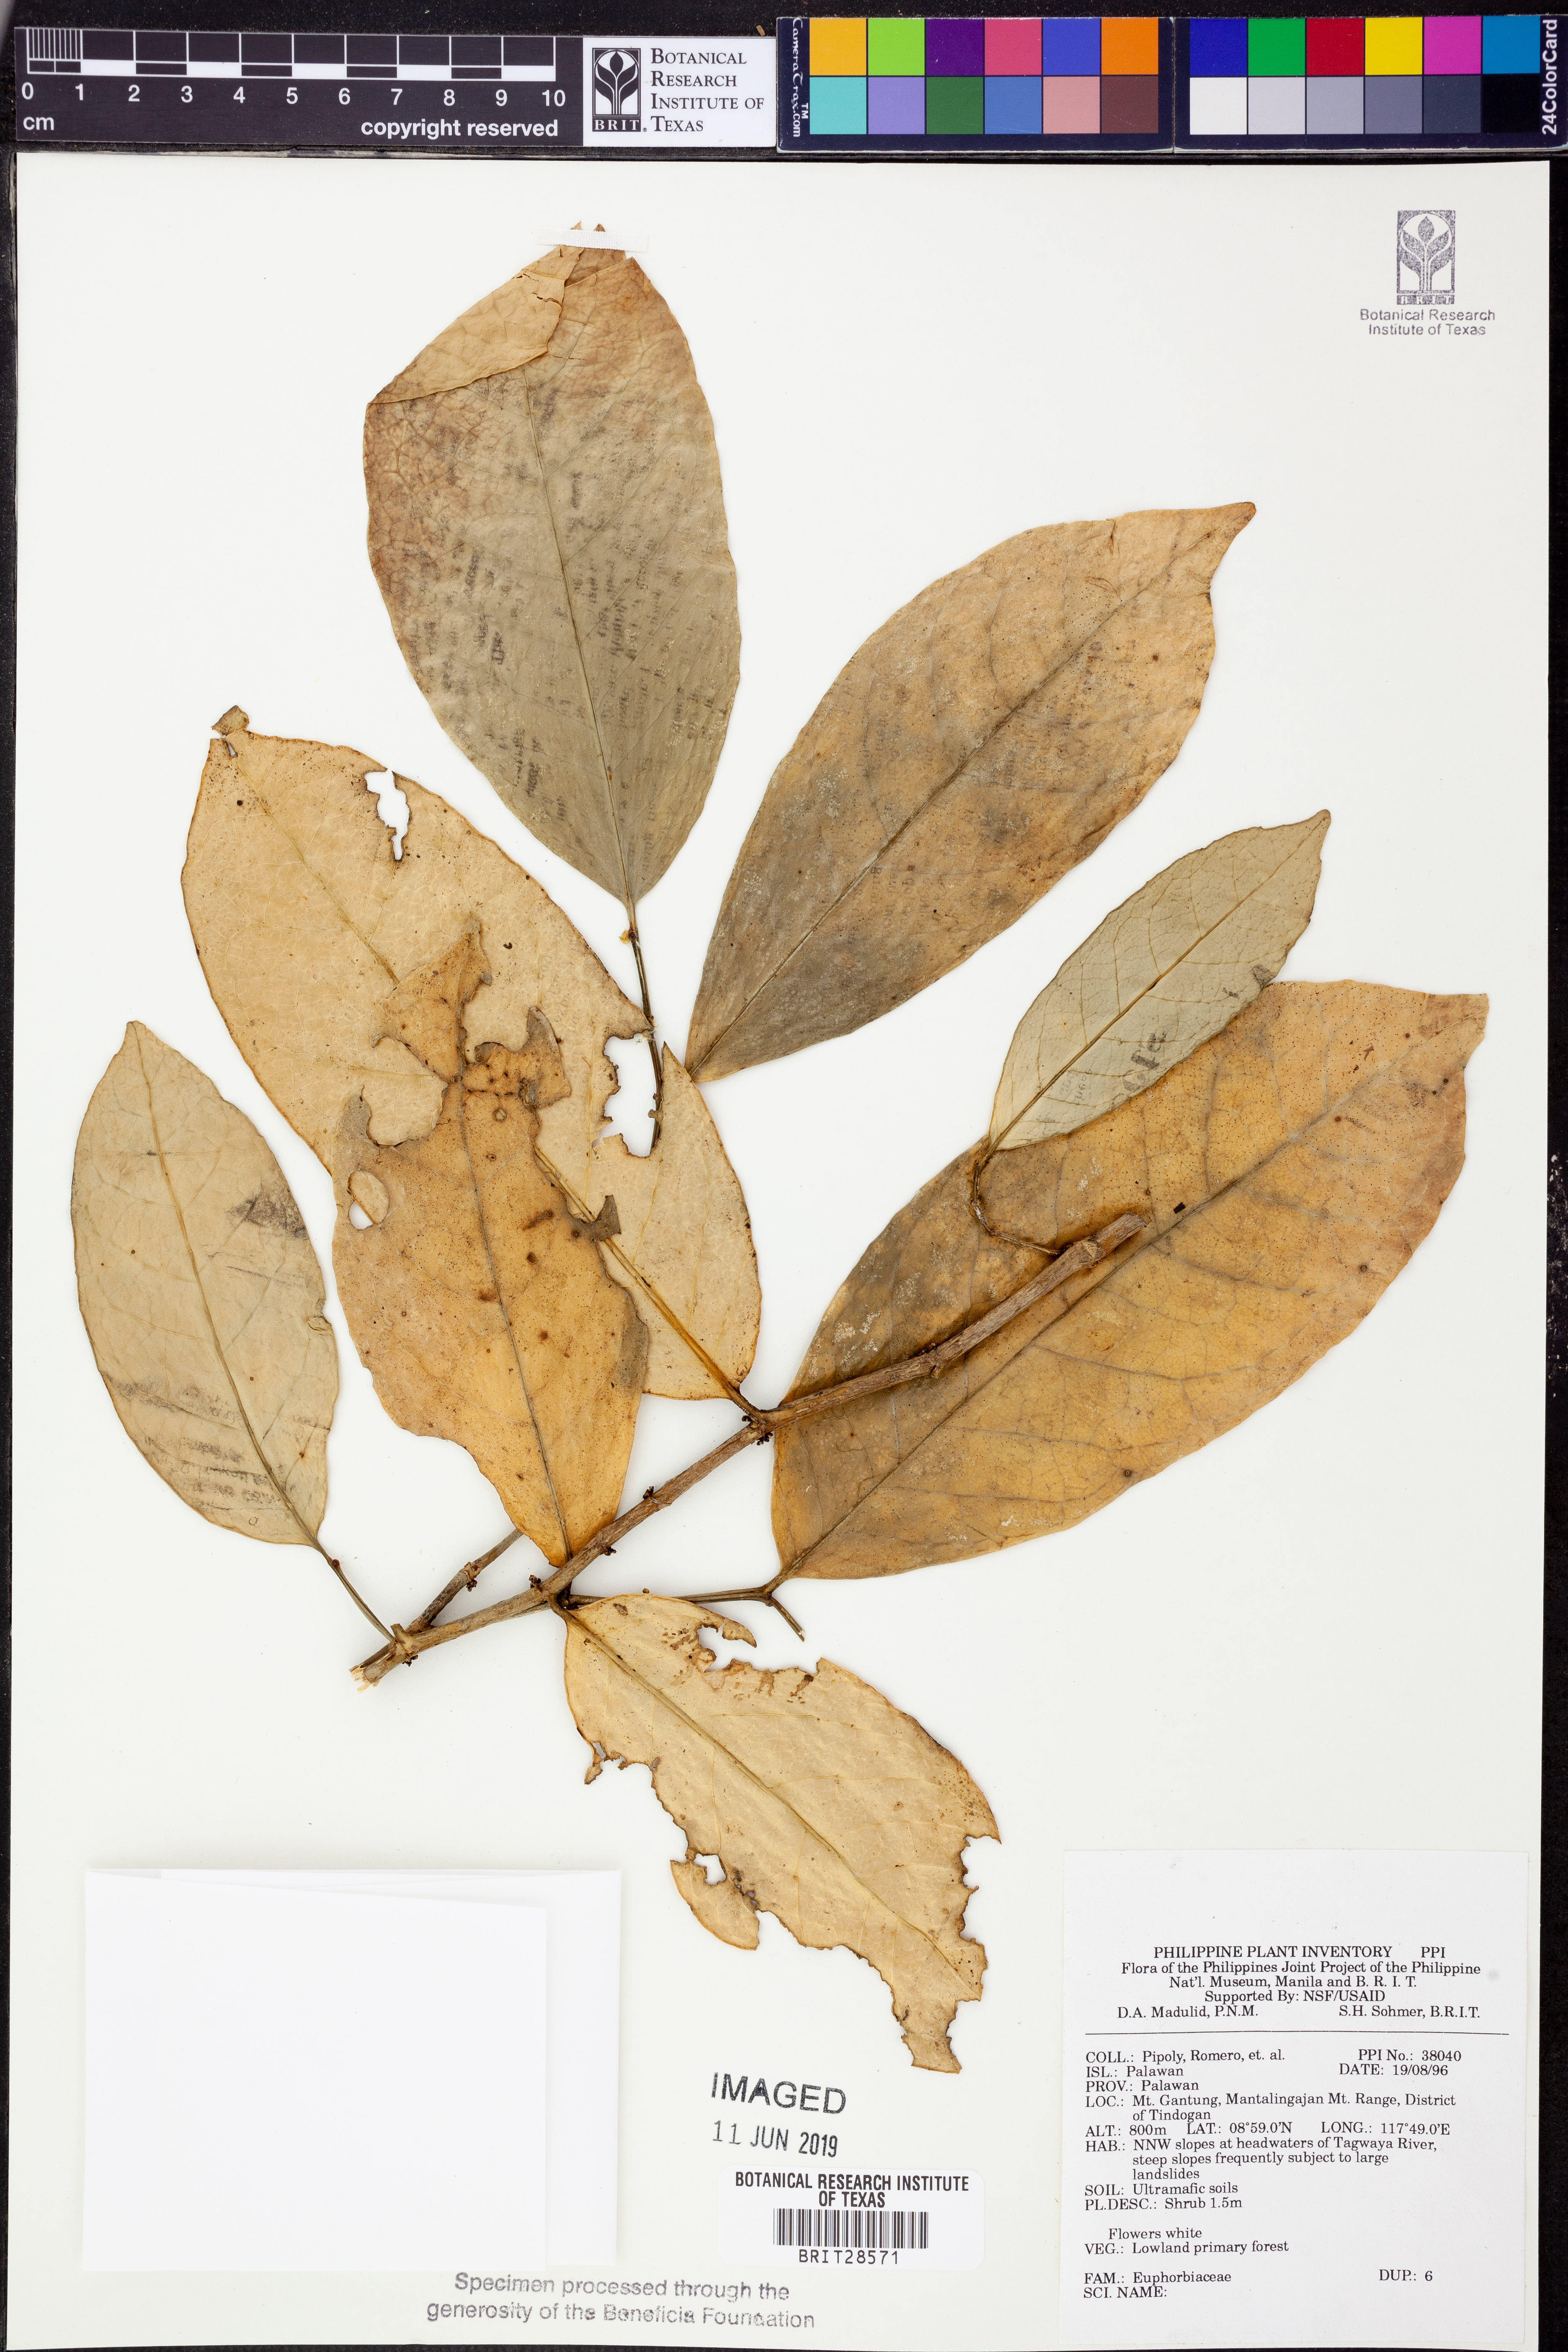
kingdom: Plantae
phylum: Tracheophyta
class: Magnoliopsida
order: Malpighiales
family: Euphorbiaceae
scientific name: Euphorbiaceae
